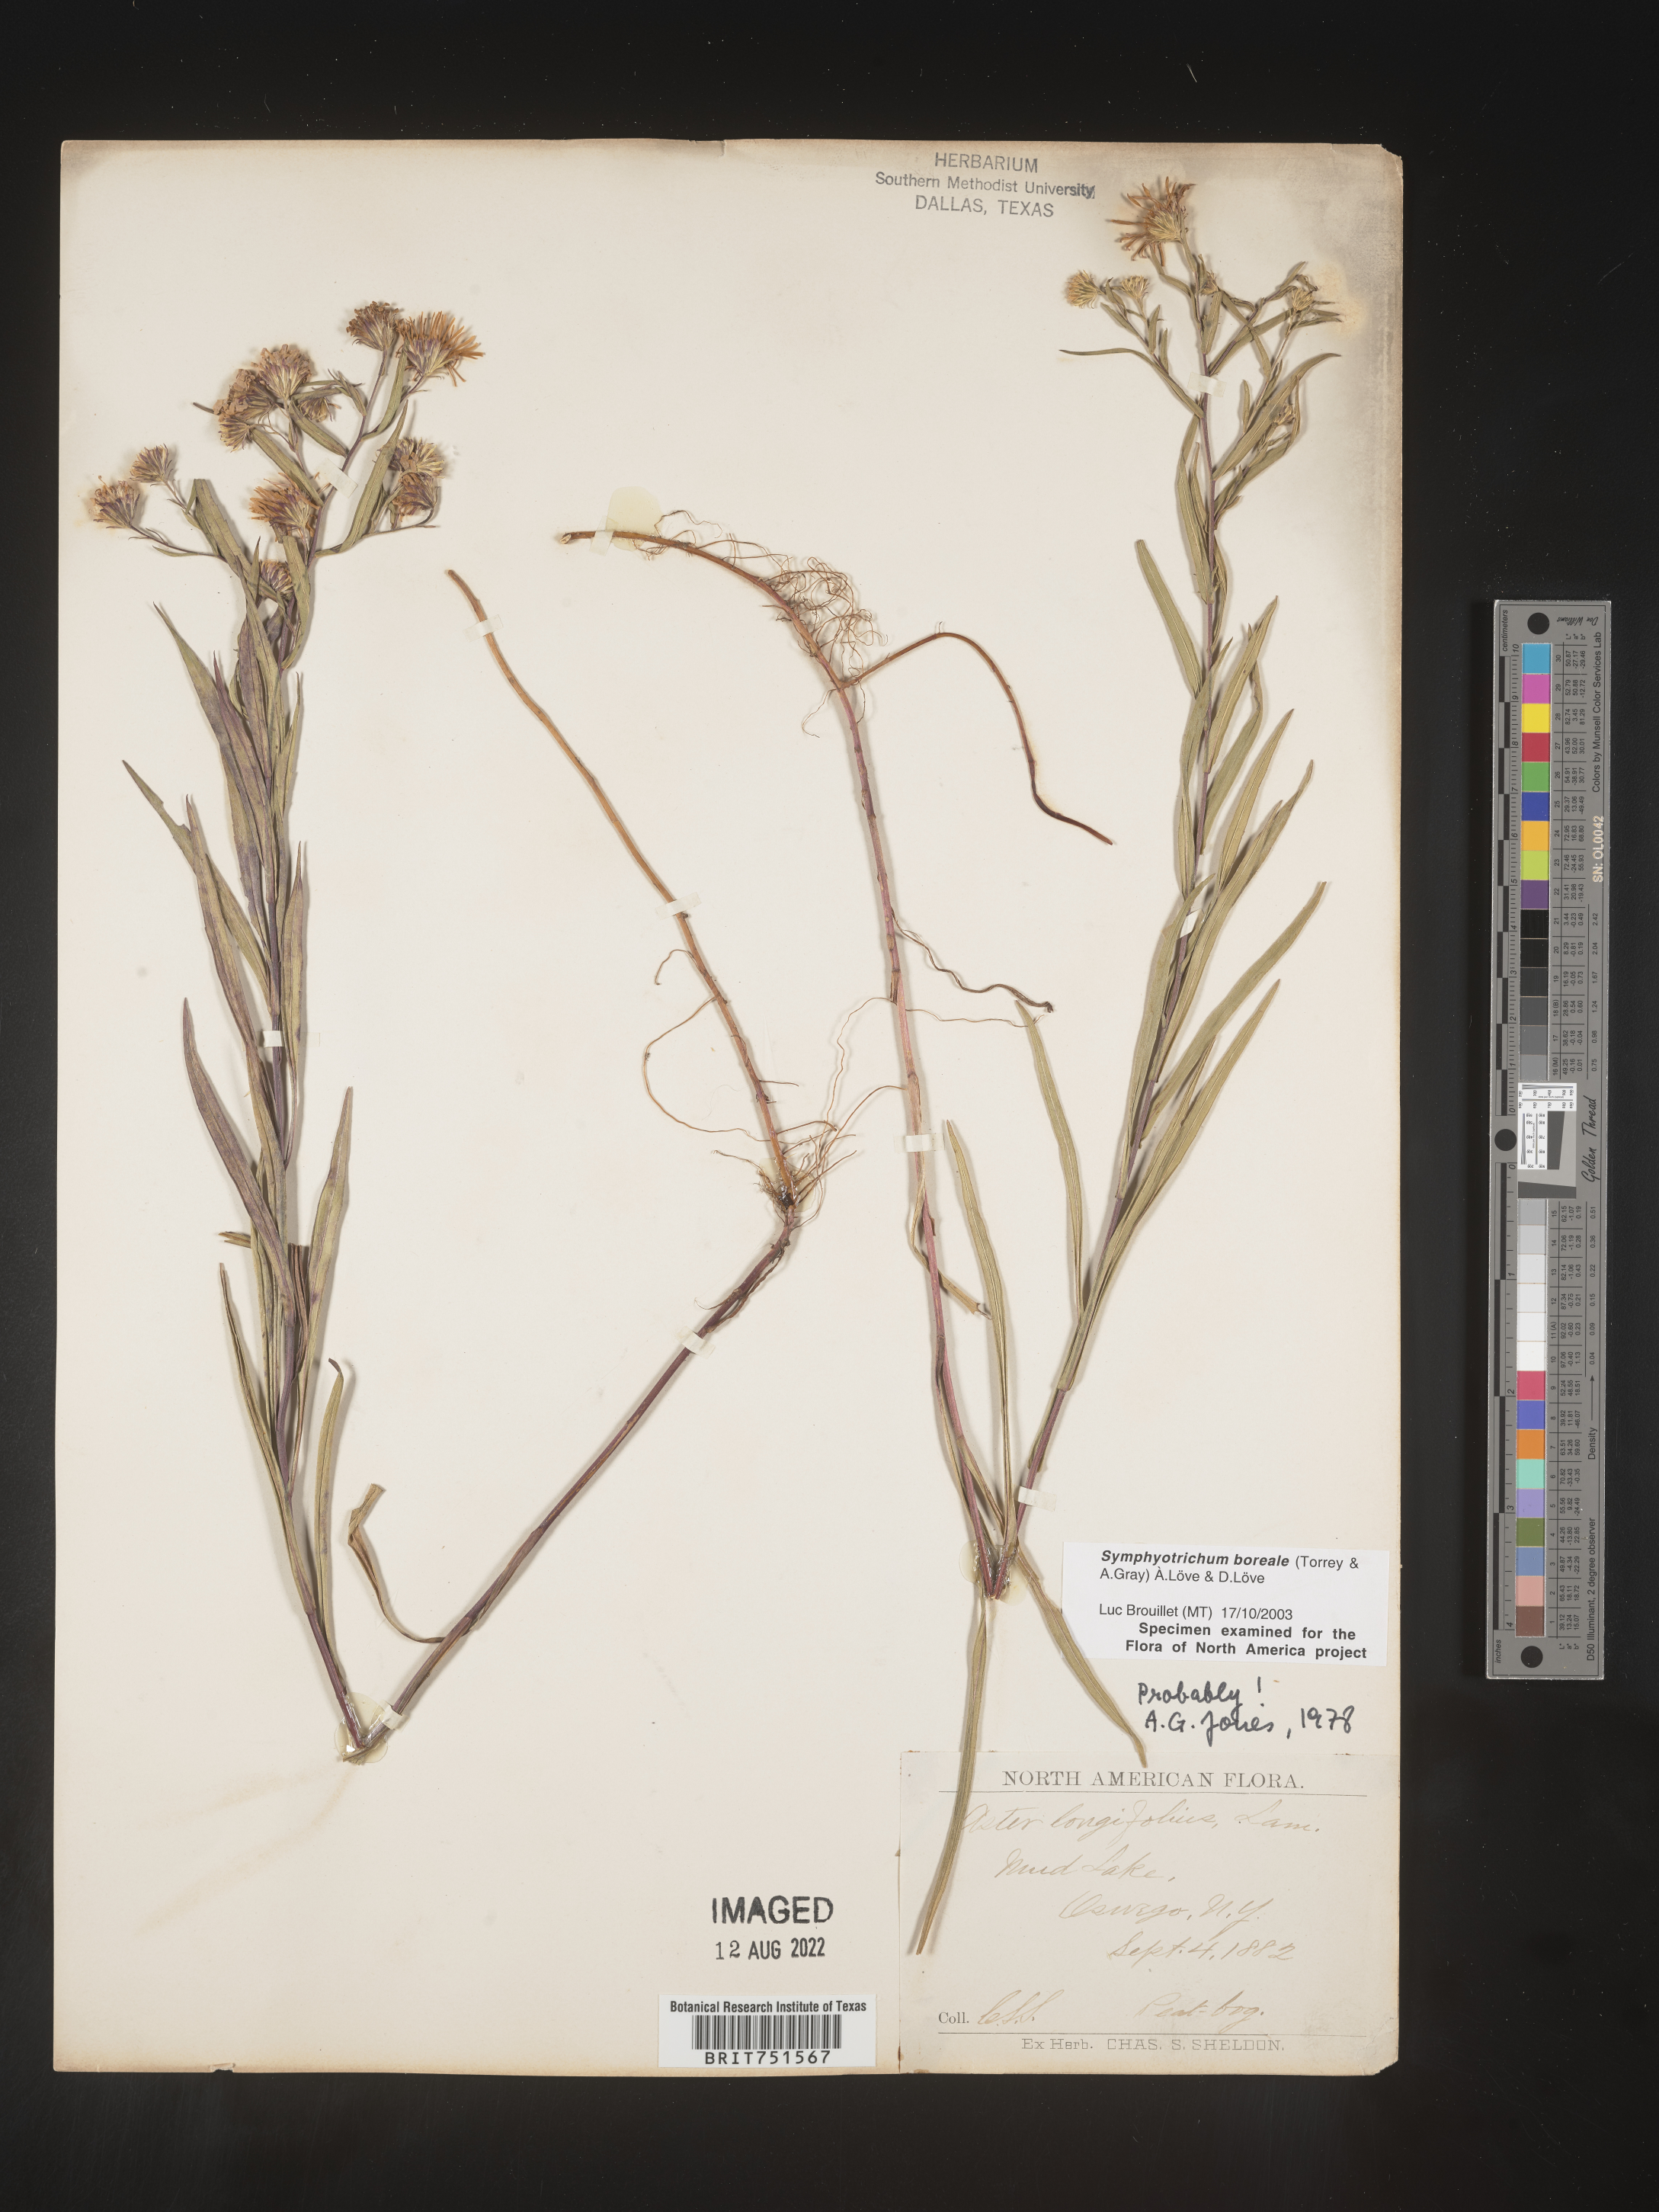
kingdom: Plantae
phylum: Tracheophyta
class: Magnoliopsida
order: Asterales
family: Asteraceae
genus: Symphyotrichum
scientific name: Symphyotrichum boreale
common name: Northern bog aster
